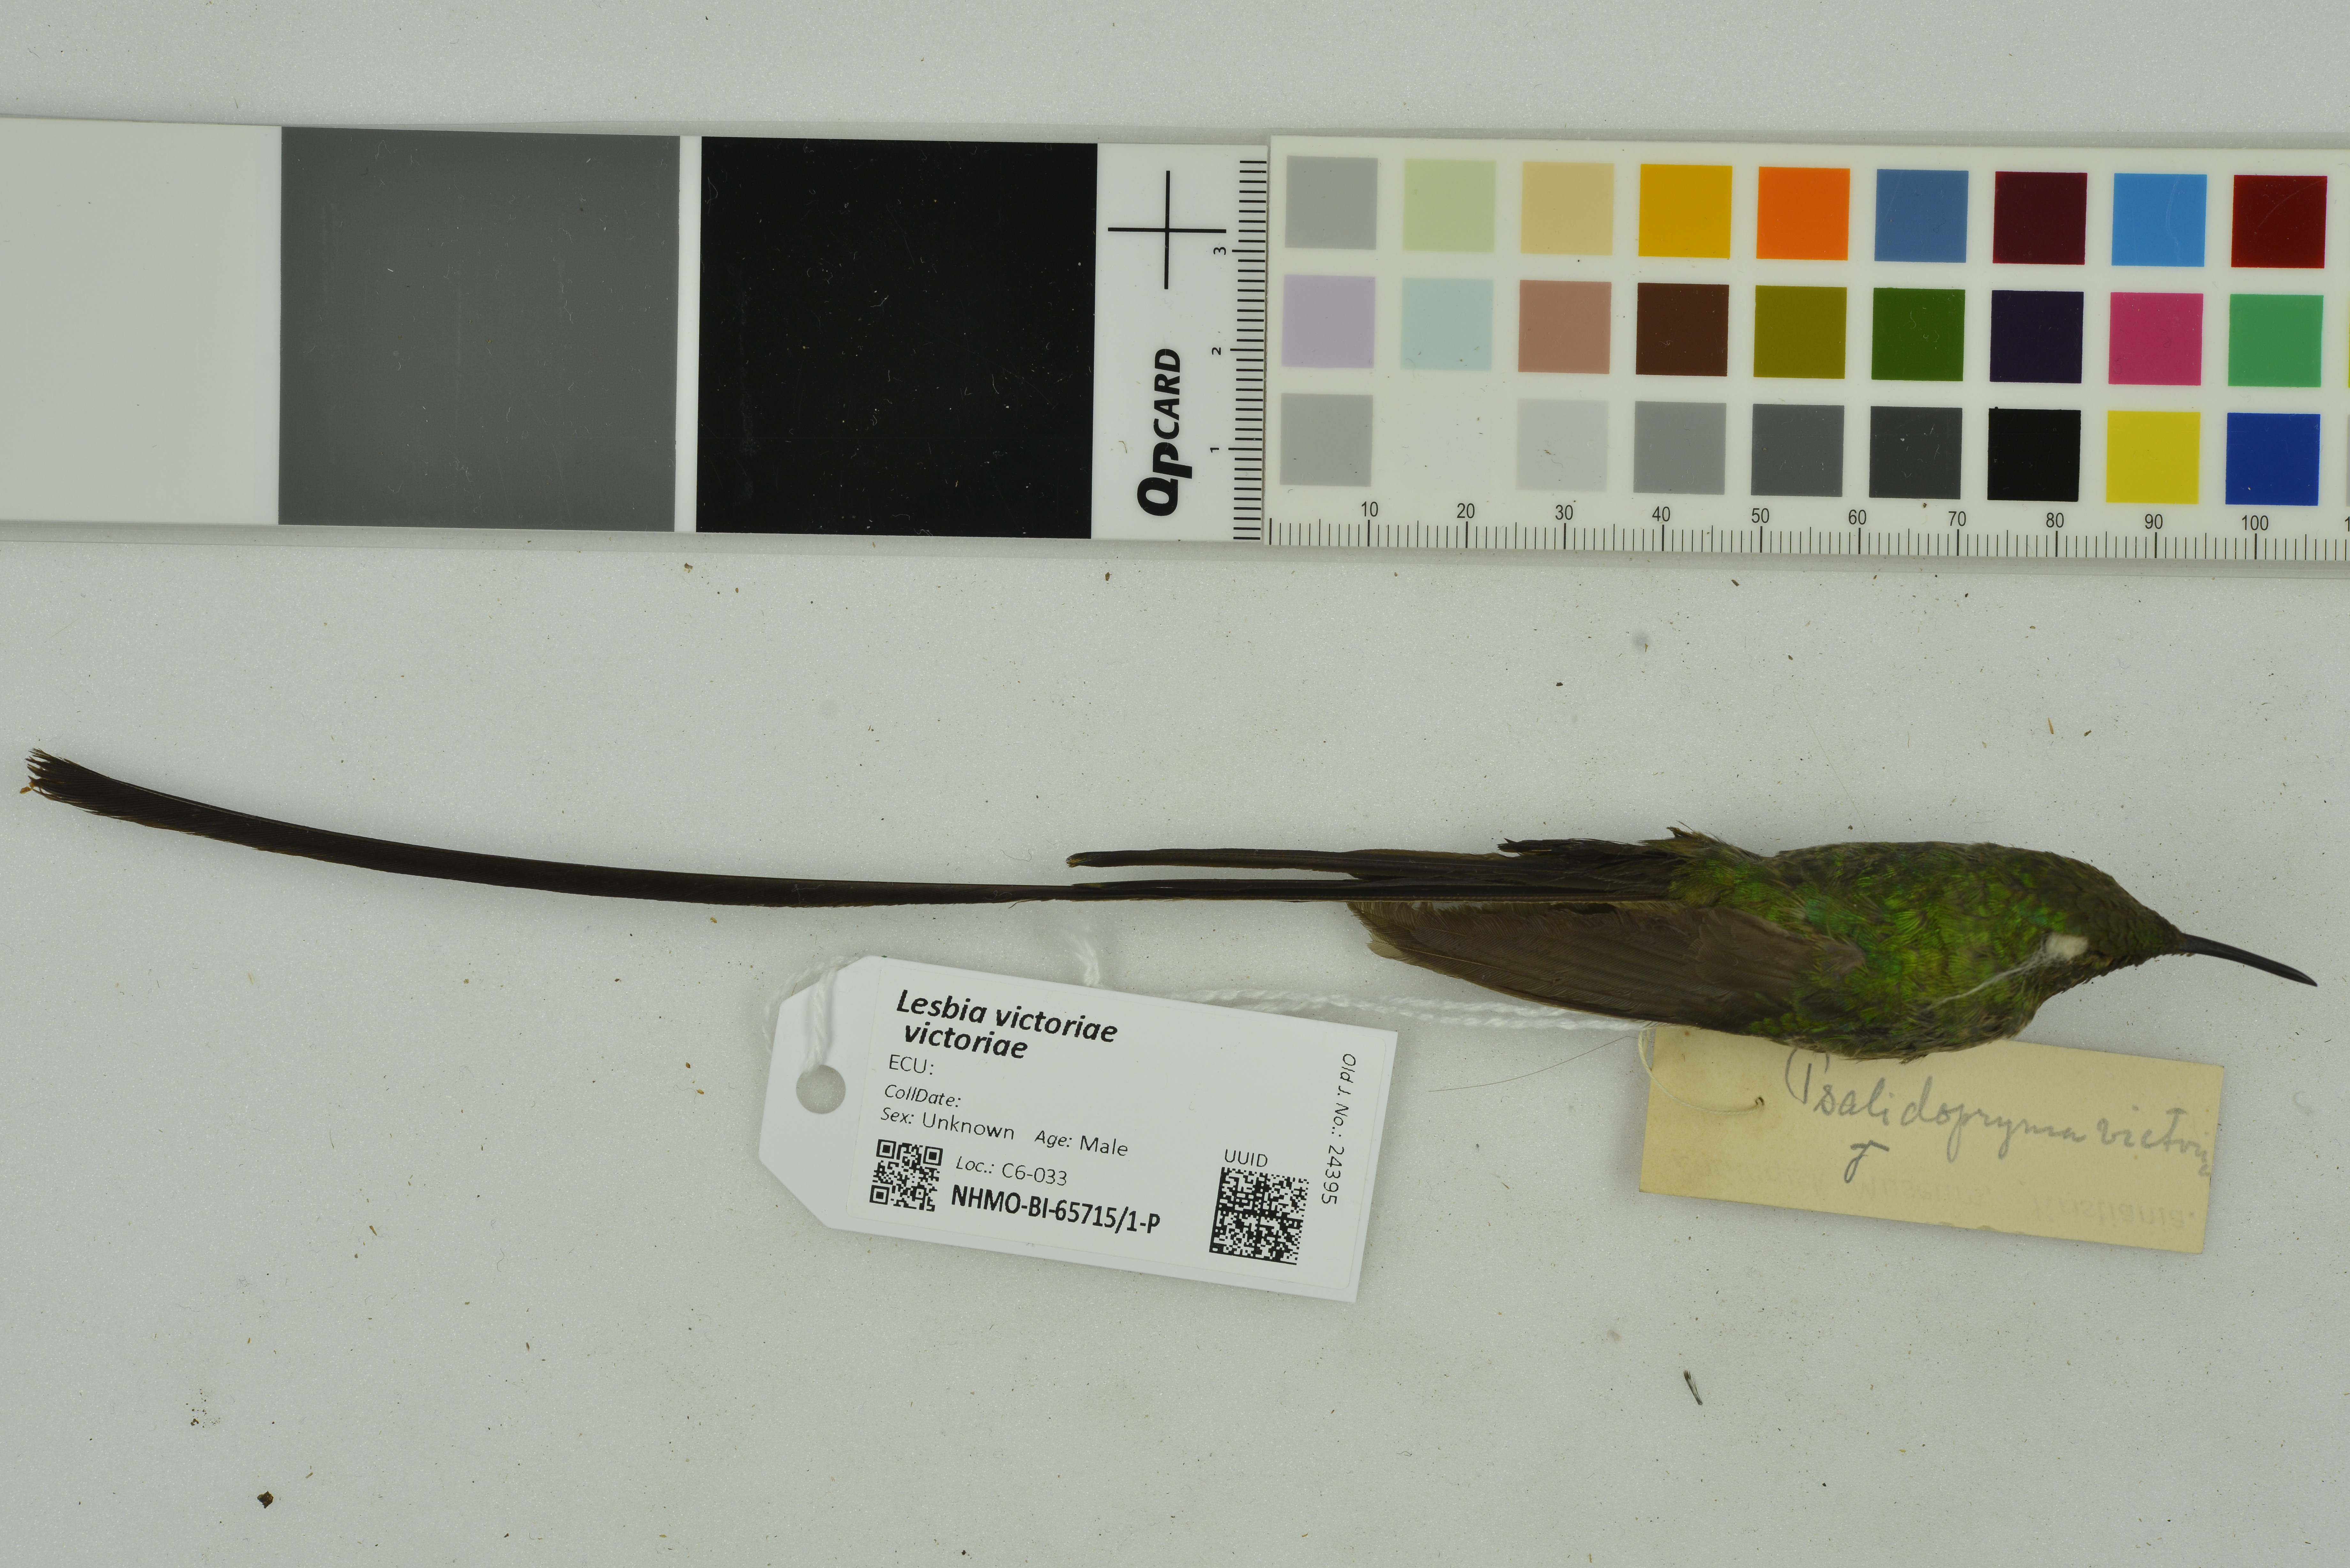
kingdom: Animalia
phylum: Chordata
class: Aves
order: Apodiformes
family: Trochilidae
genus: Lesbia
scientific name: Lesbia victoriae
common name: Black-tailed trainbearer
